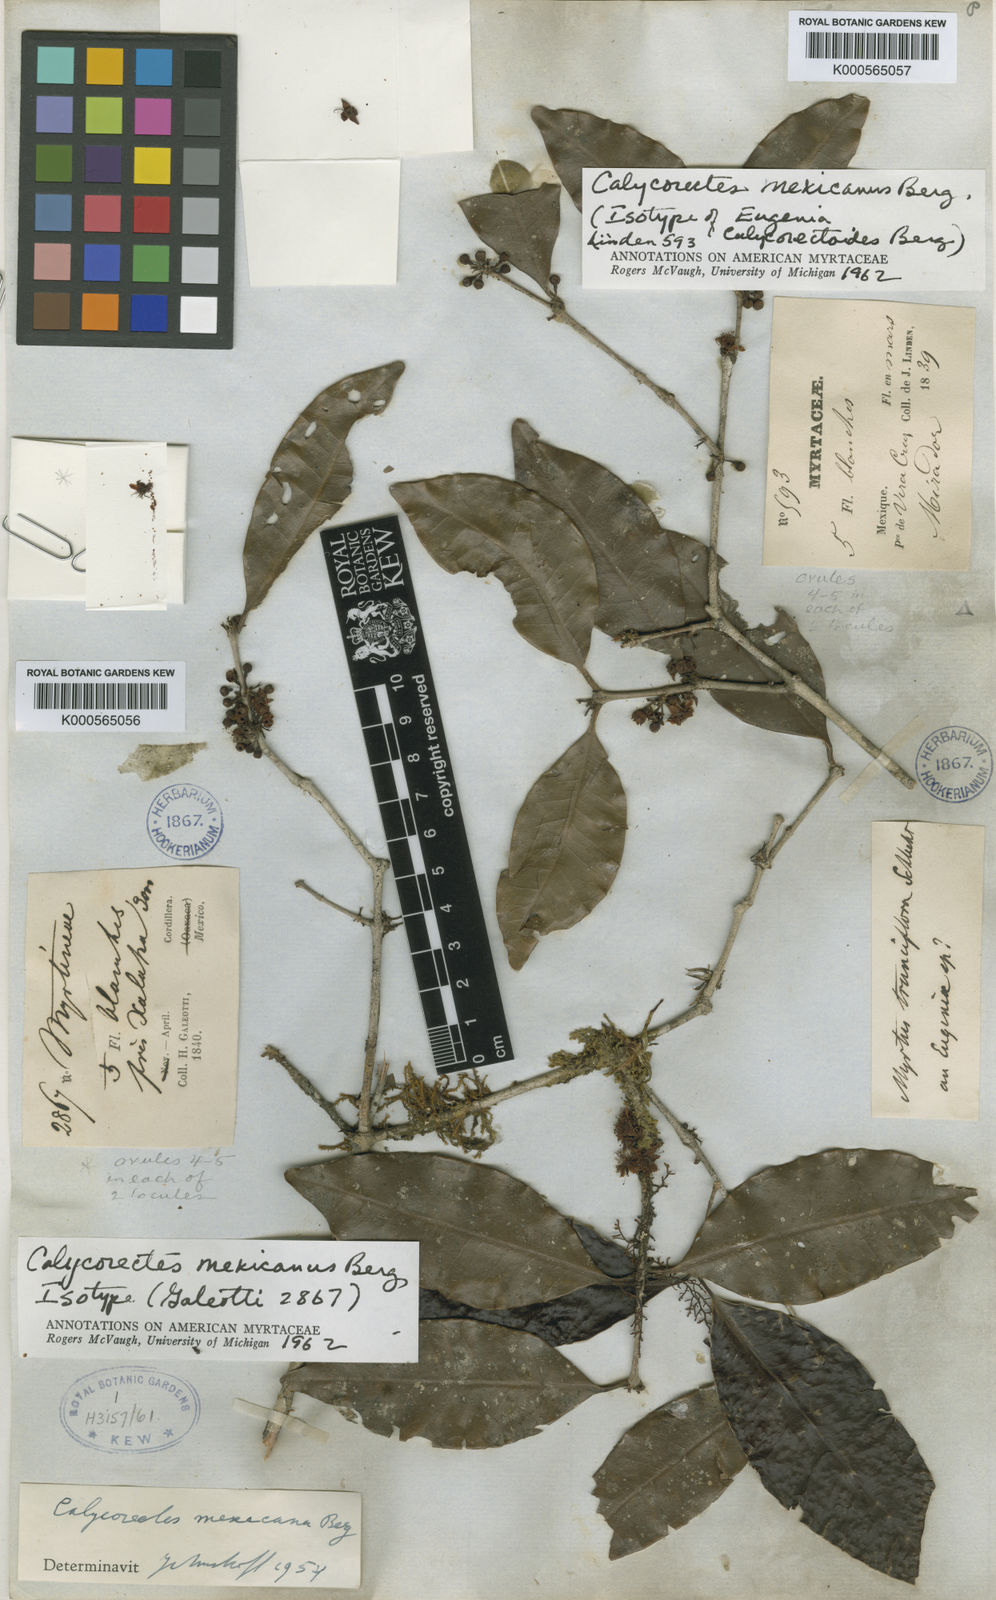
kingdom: Plantae
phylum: Tracheophyta
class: Magnoliopsida
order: Myrtales
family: Myrtaceae
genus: Calycorectes
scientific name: Calycorectes mexicanus
